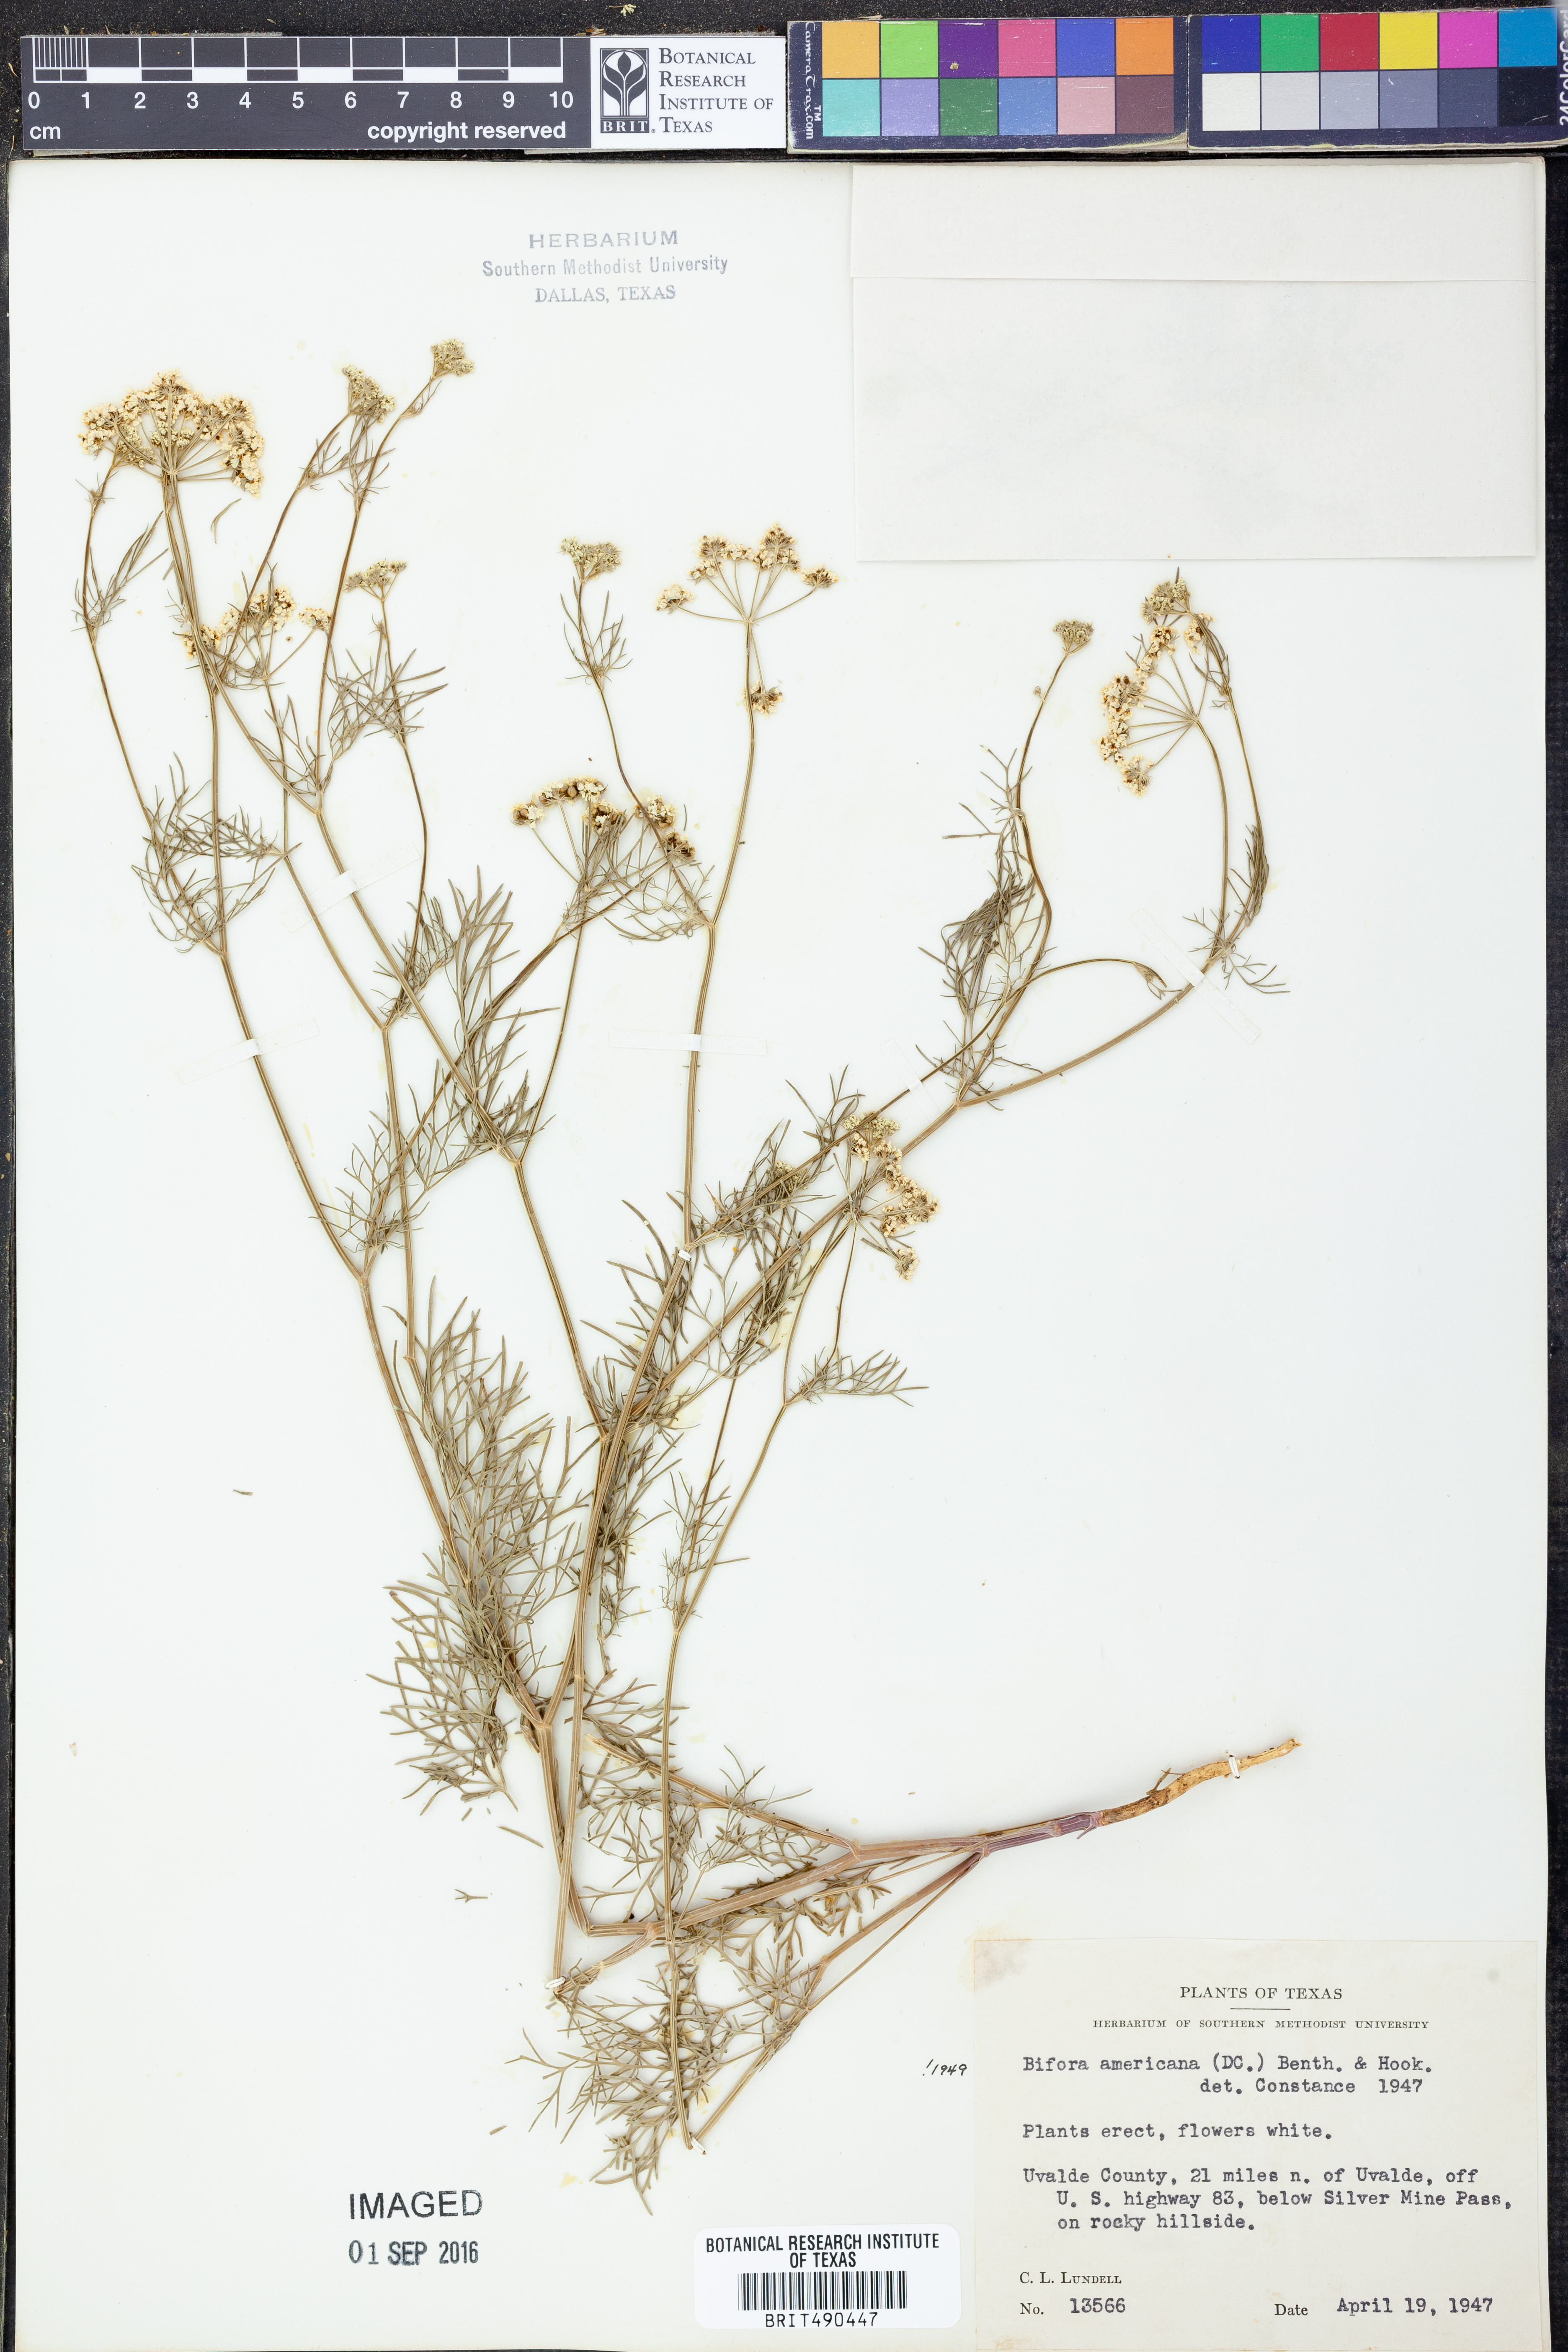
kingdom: Plantae
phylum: Tracheophyta
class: Magnoliopsida
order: Apiales
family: Apiaceae
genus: Atrema
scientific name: Atrema americanum
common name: Prairie-bishop
